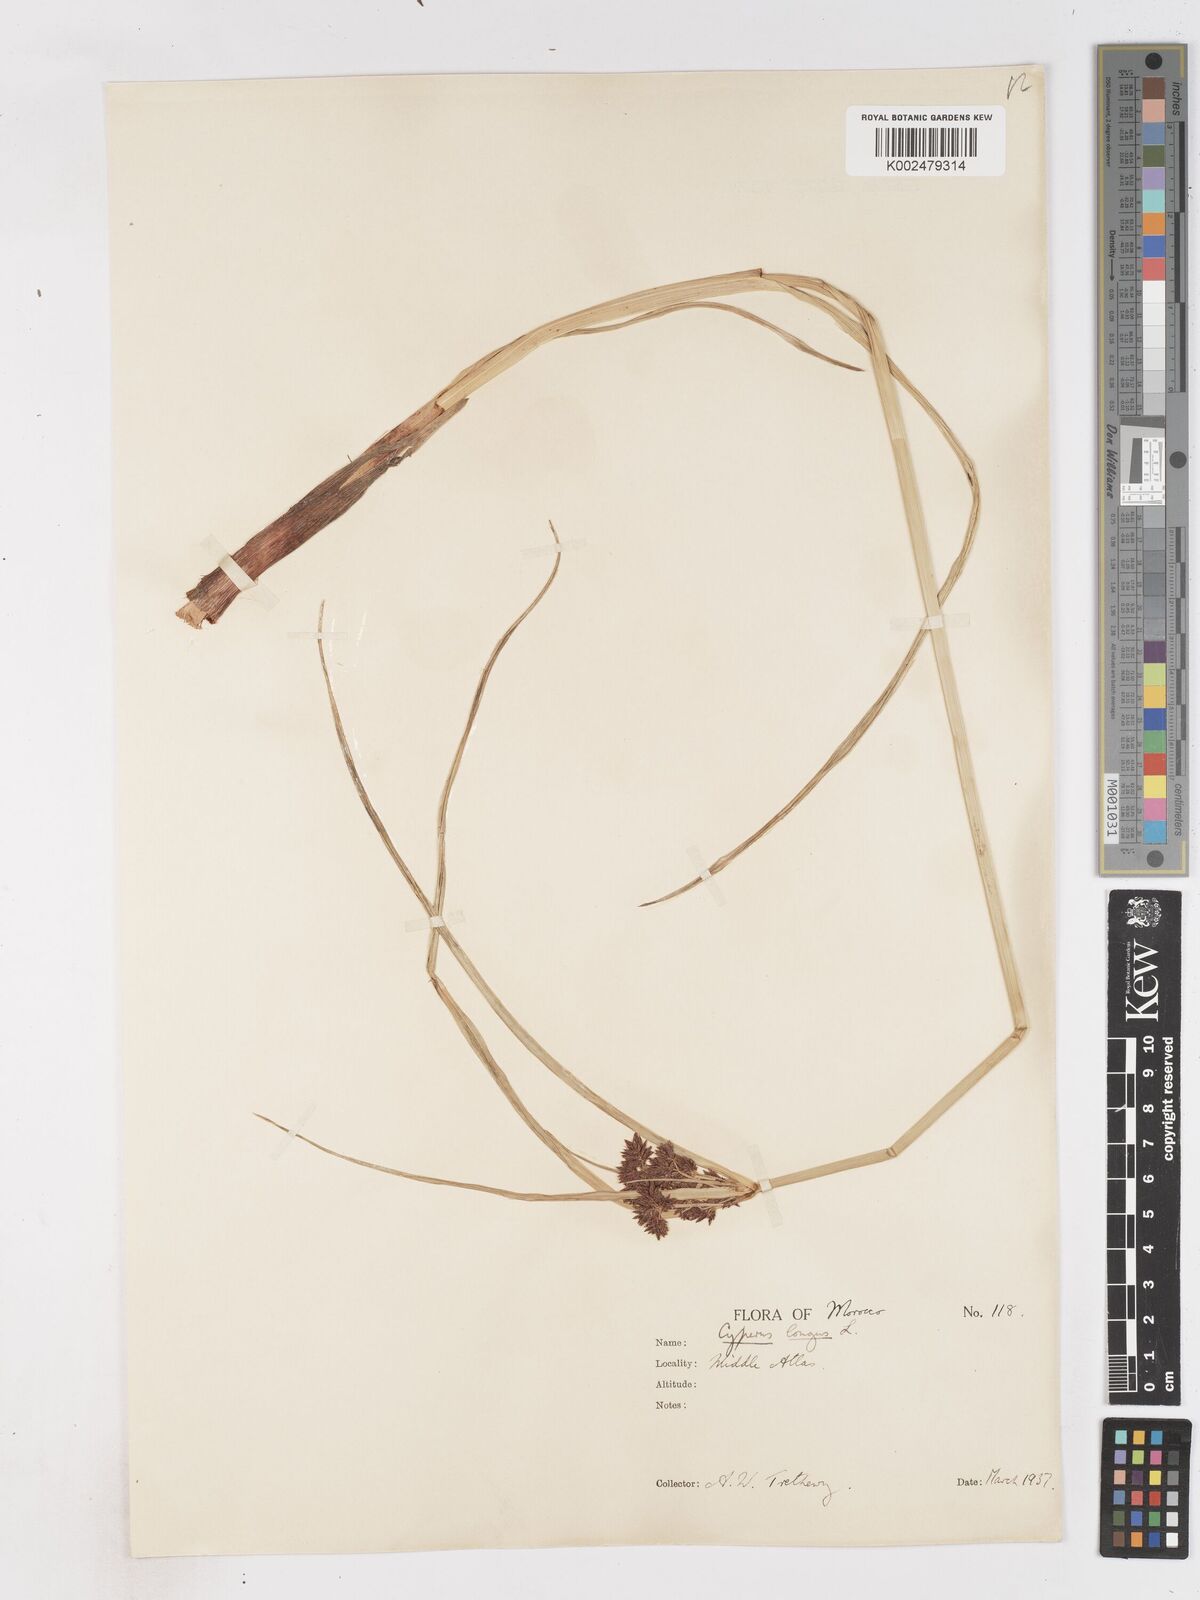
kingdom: Plantae
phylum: Tracheophyta
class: Liliopsida
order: Poales
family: Cyperaceae
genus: Cyperus
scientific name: Cyperus longus
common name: Galingale
